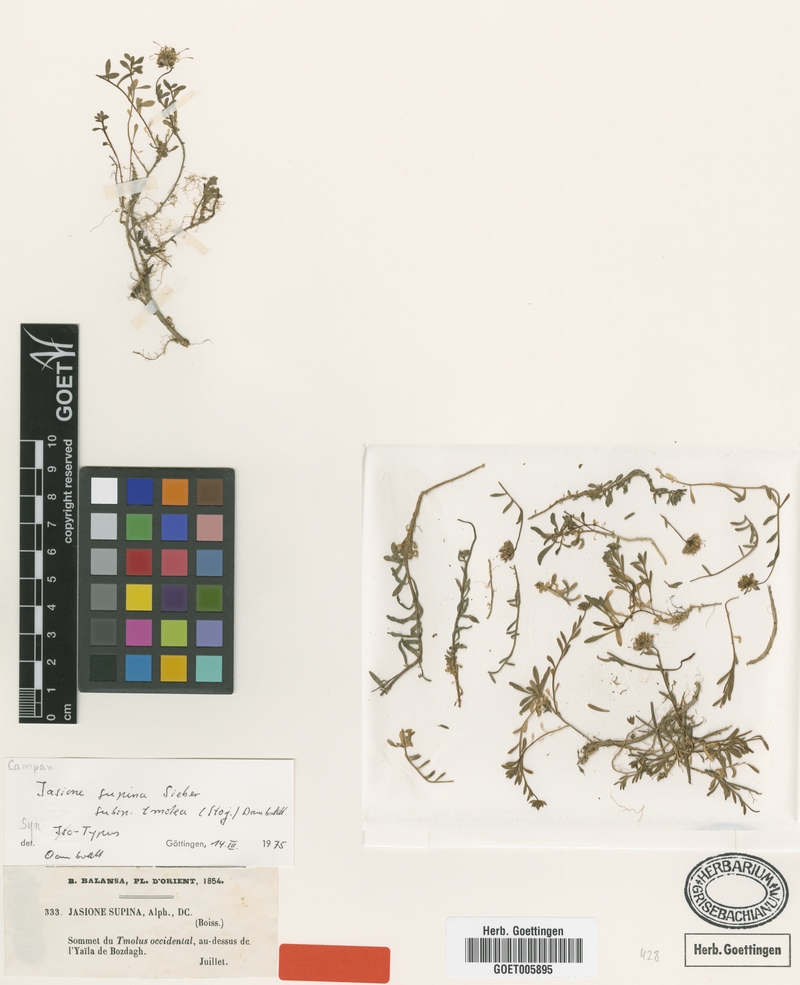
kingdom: Plantae
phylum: Tracheophyta
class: Magnoliopsida
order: Asterales
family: Campanulaceae
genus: Jasione
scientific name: Jasione supina
